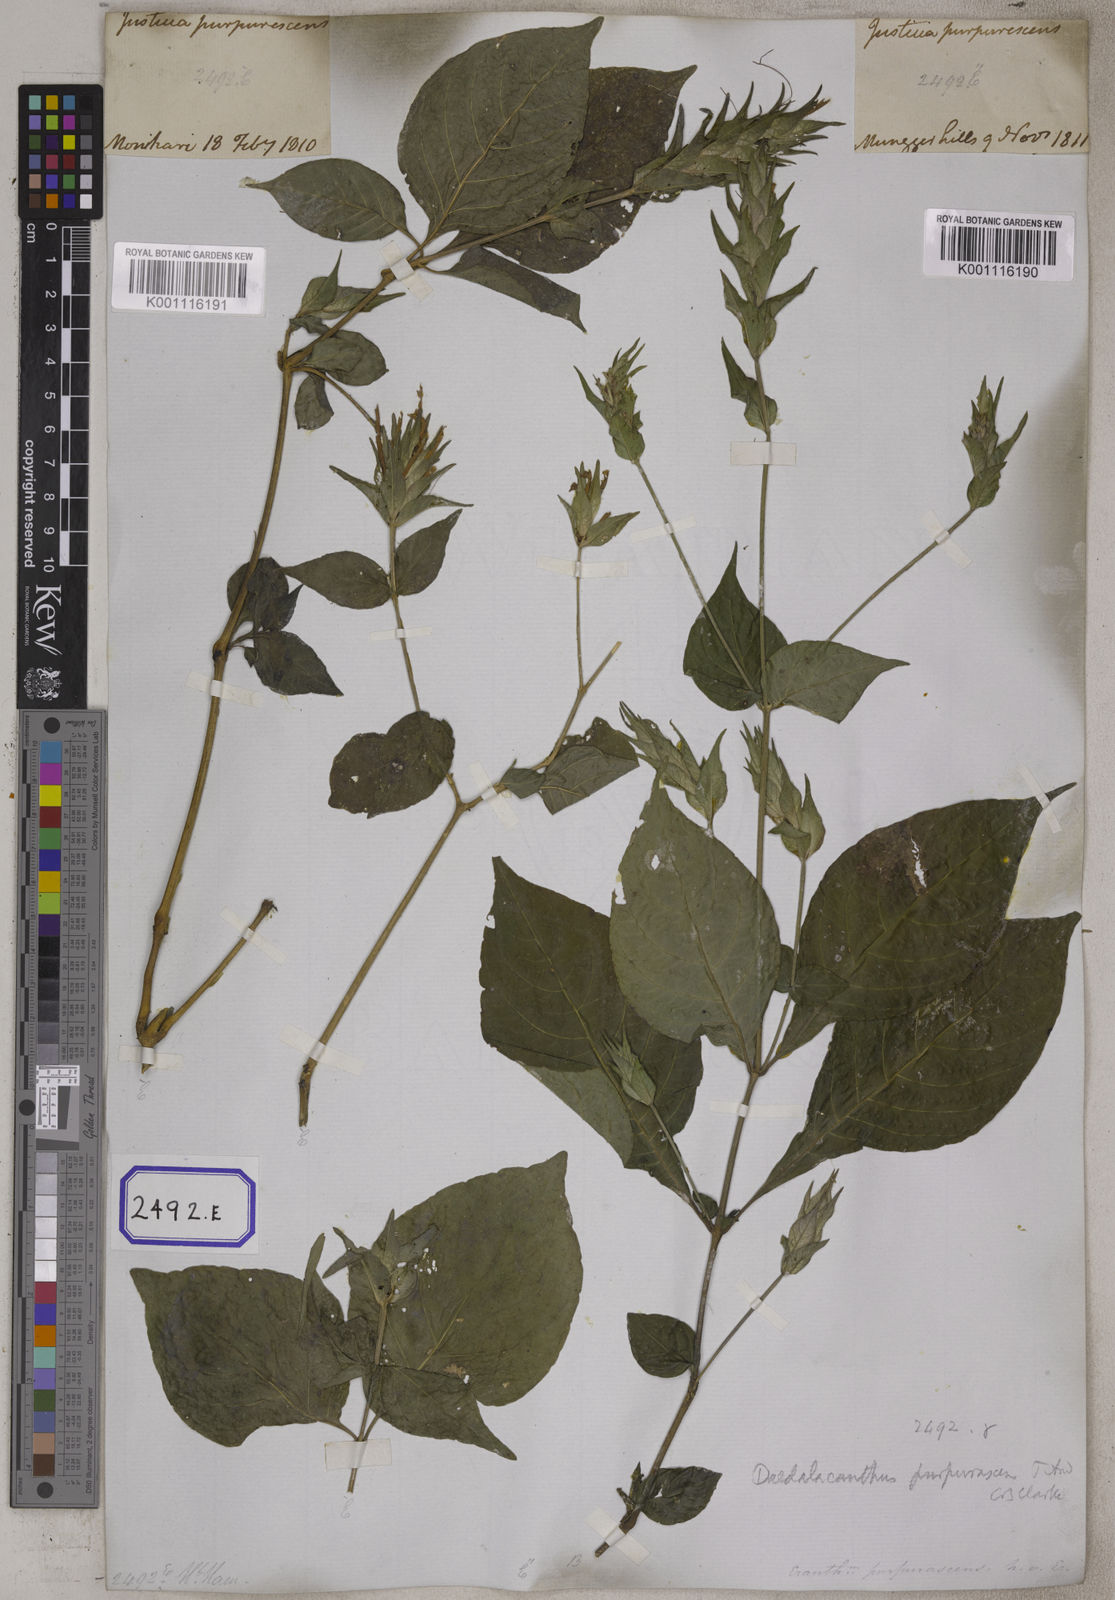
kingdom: Plantae
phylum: Tracheophyta
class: Magnoliopsida
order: Lamiales
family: Acanthaceae
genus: Eranthemum
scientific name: Eranthemum
